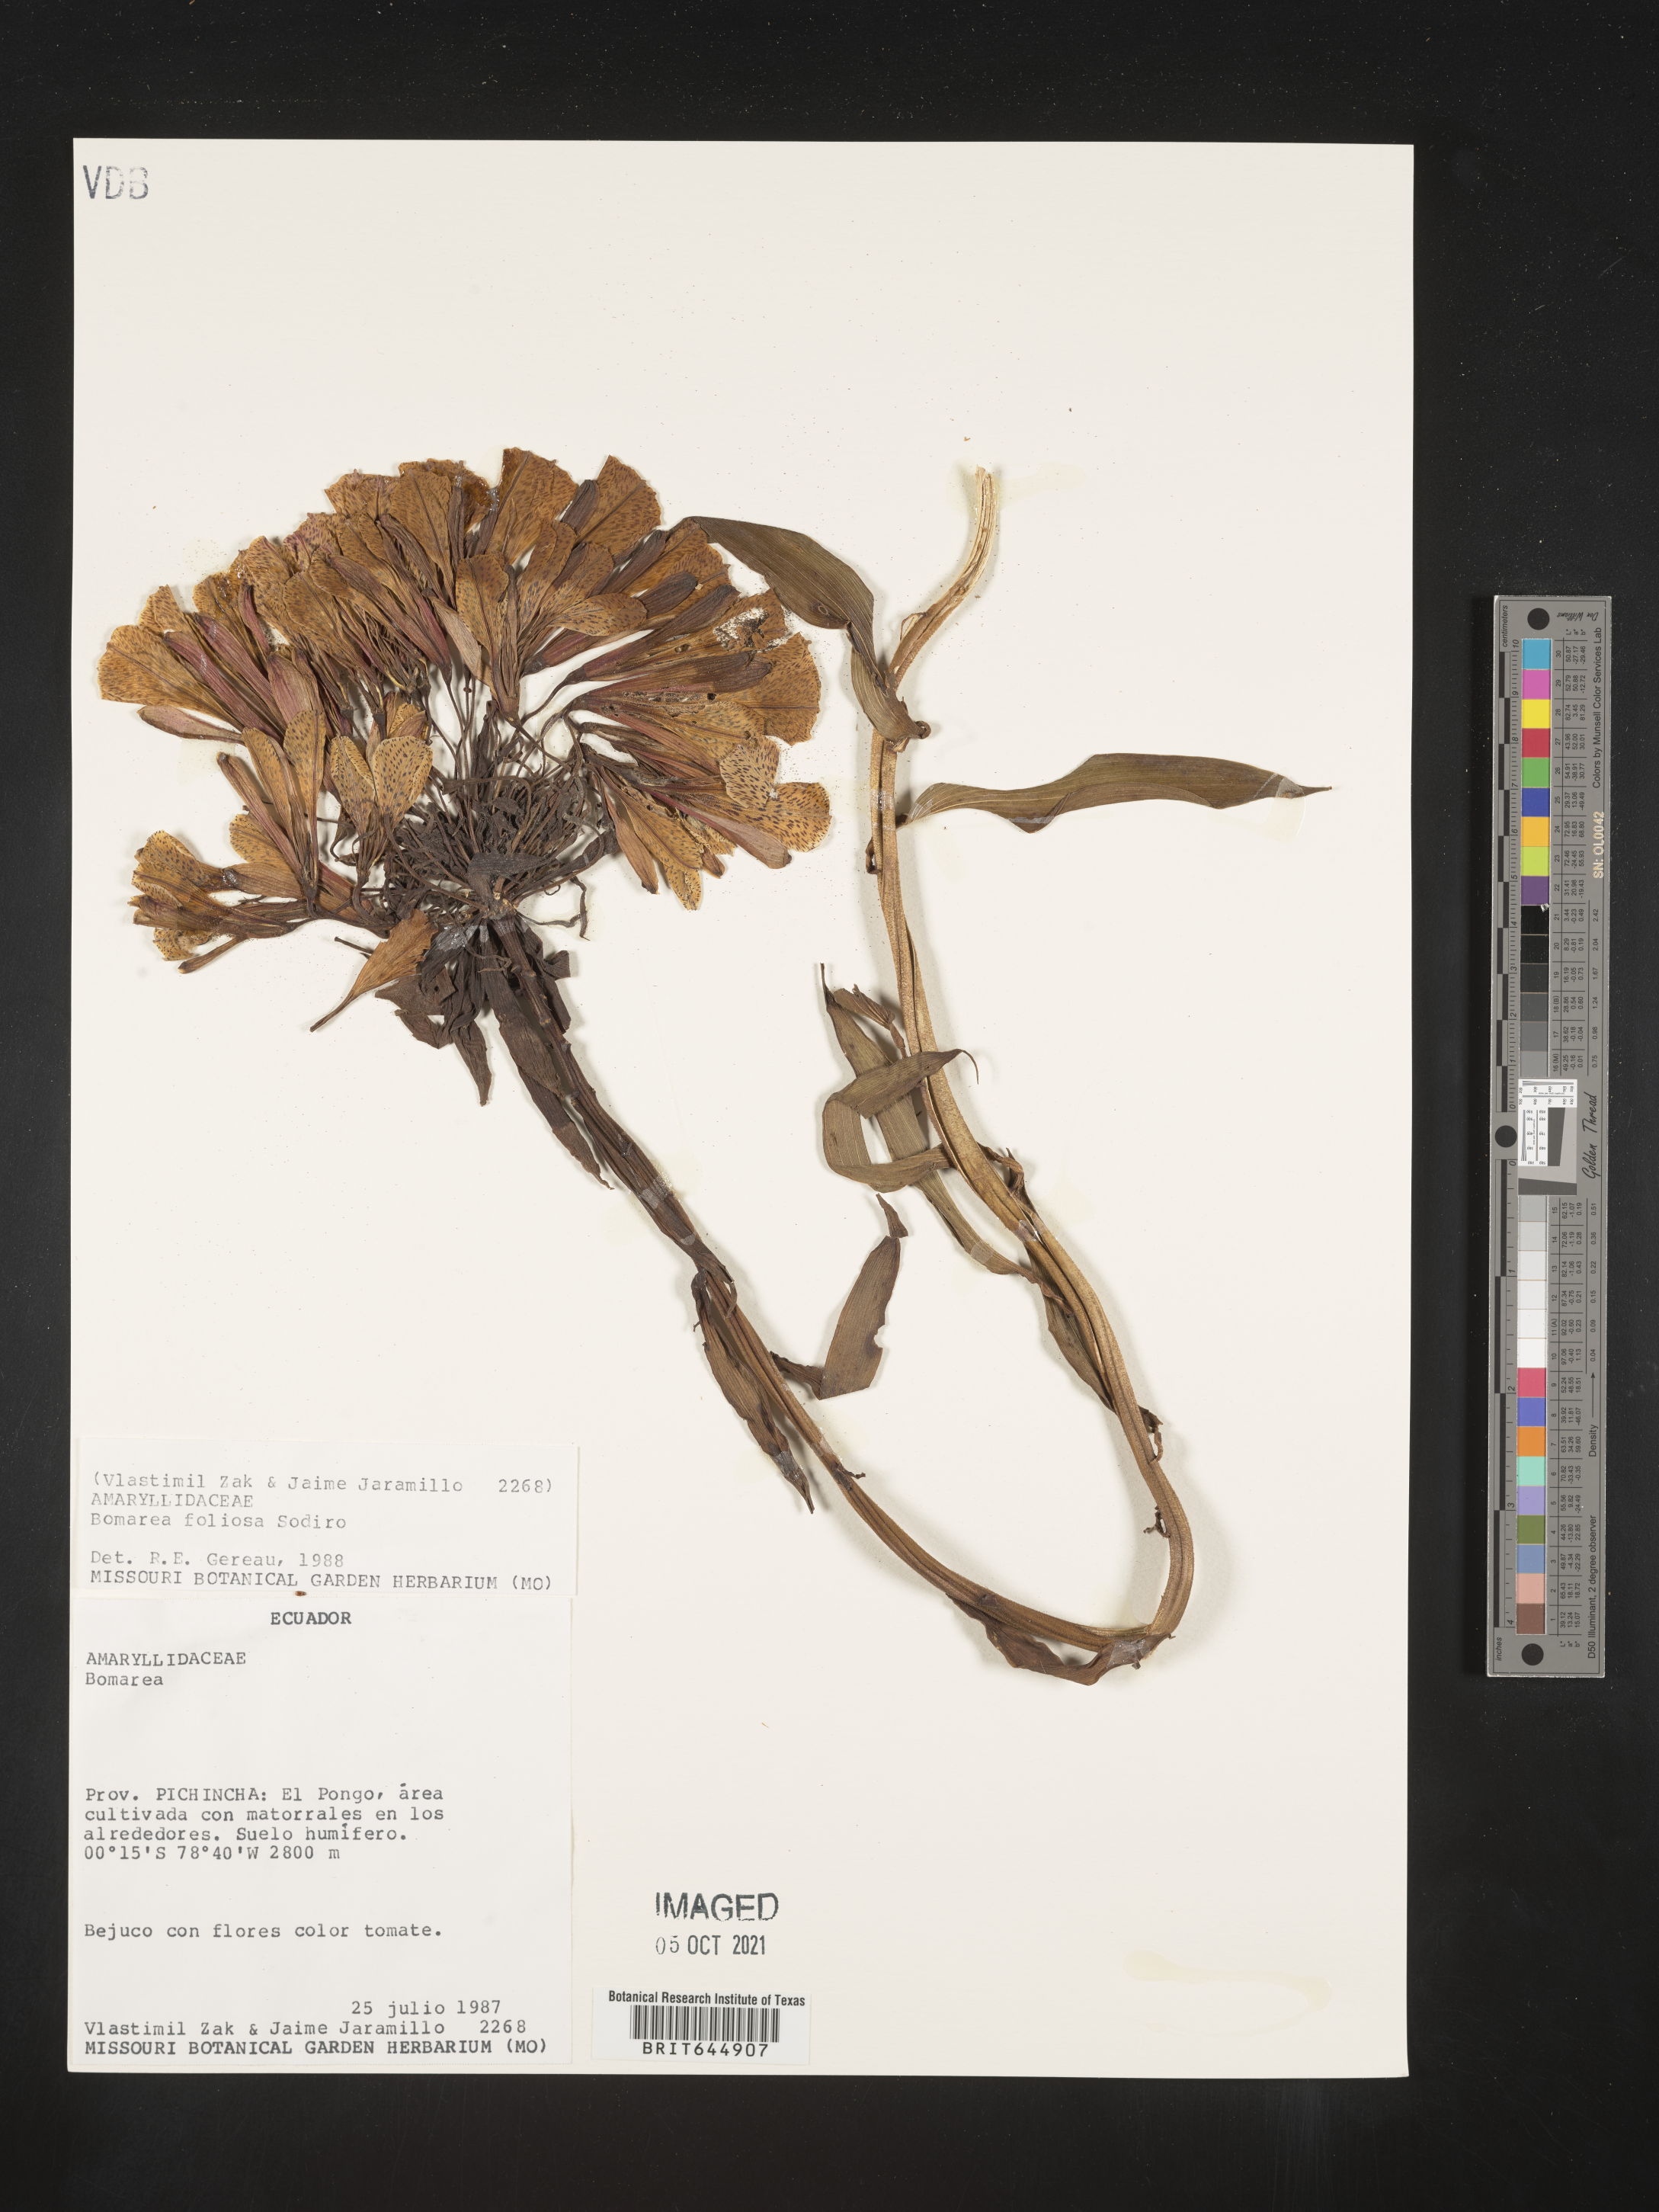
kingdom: Plantae
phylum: Tracheophyta
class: Liliopsida
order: Liliales
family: Alstroemeriaceae
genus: Bomarea
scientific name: Bomarea patacocensis
